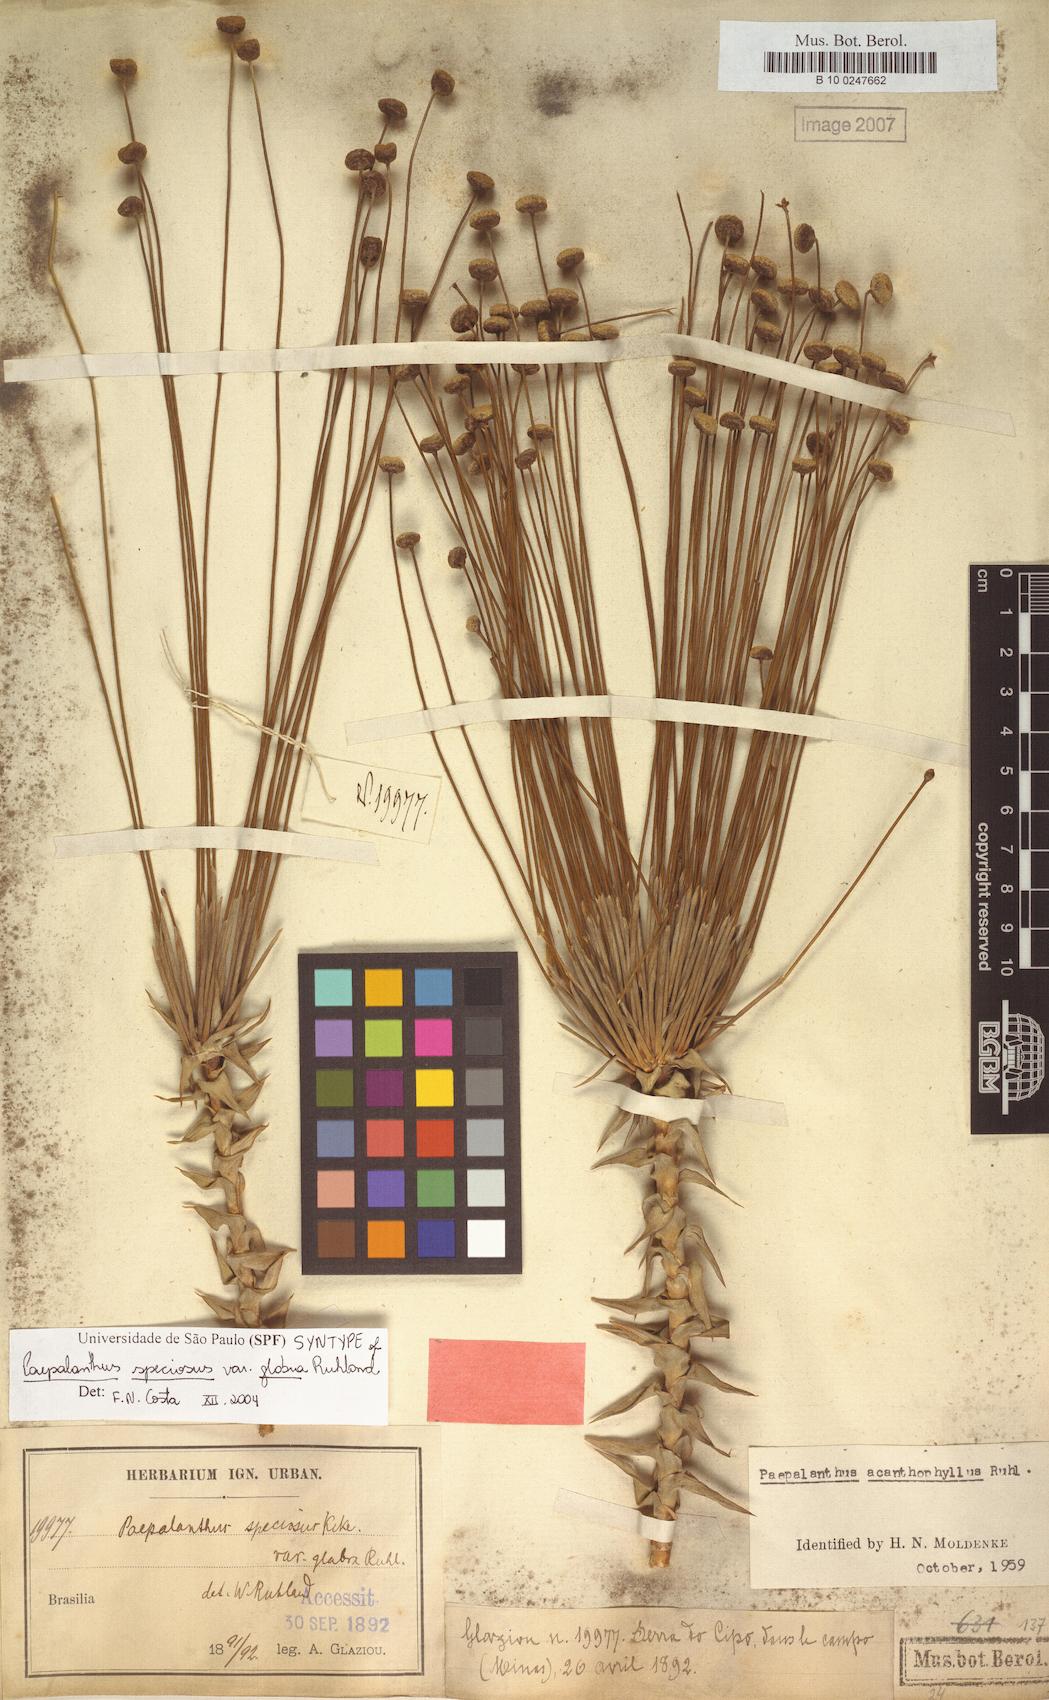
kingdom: Plantae
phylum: Tracheophyta
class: Liliopsida
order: Poales
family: Eriocaulaceae
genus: Paepalanthus
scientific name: Paepalanthus erectifolius
